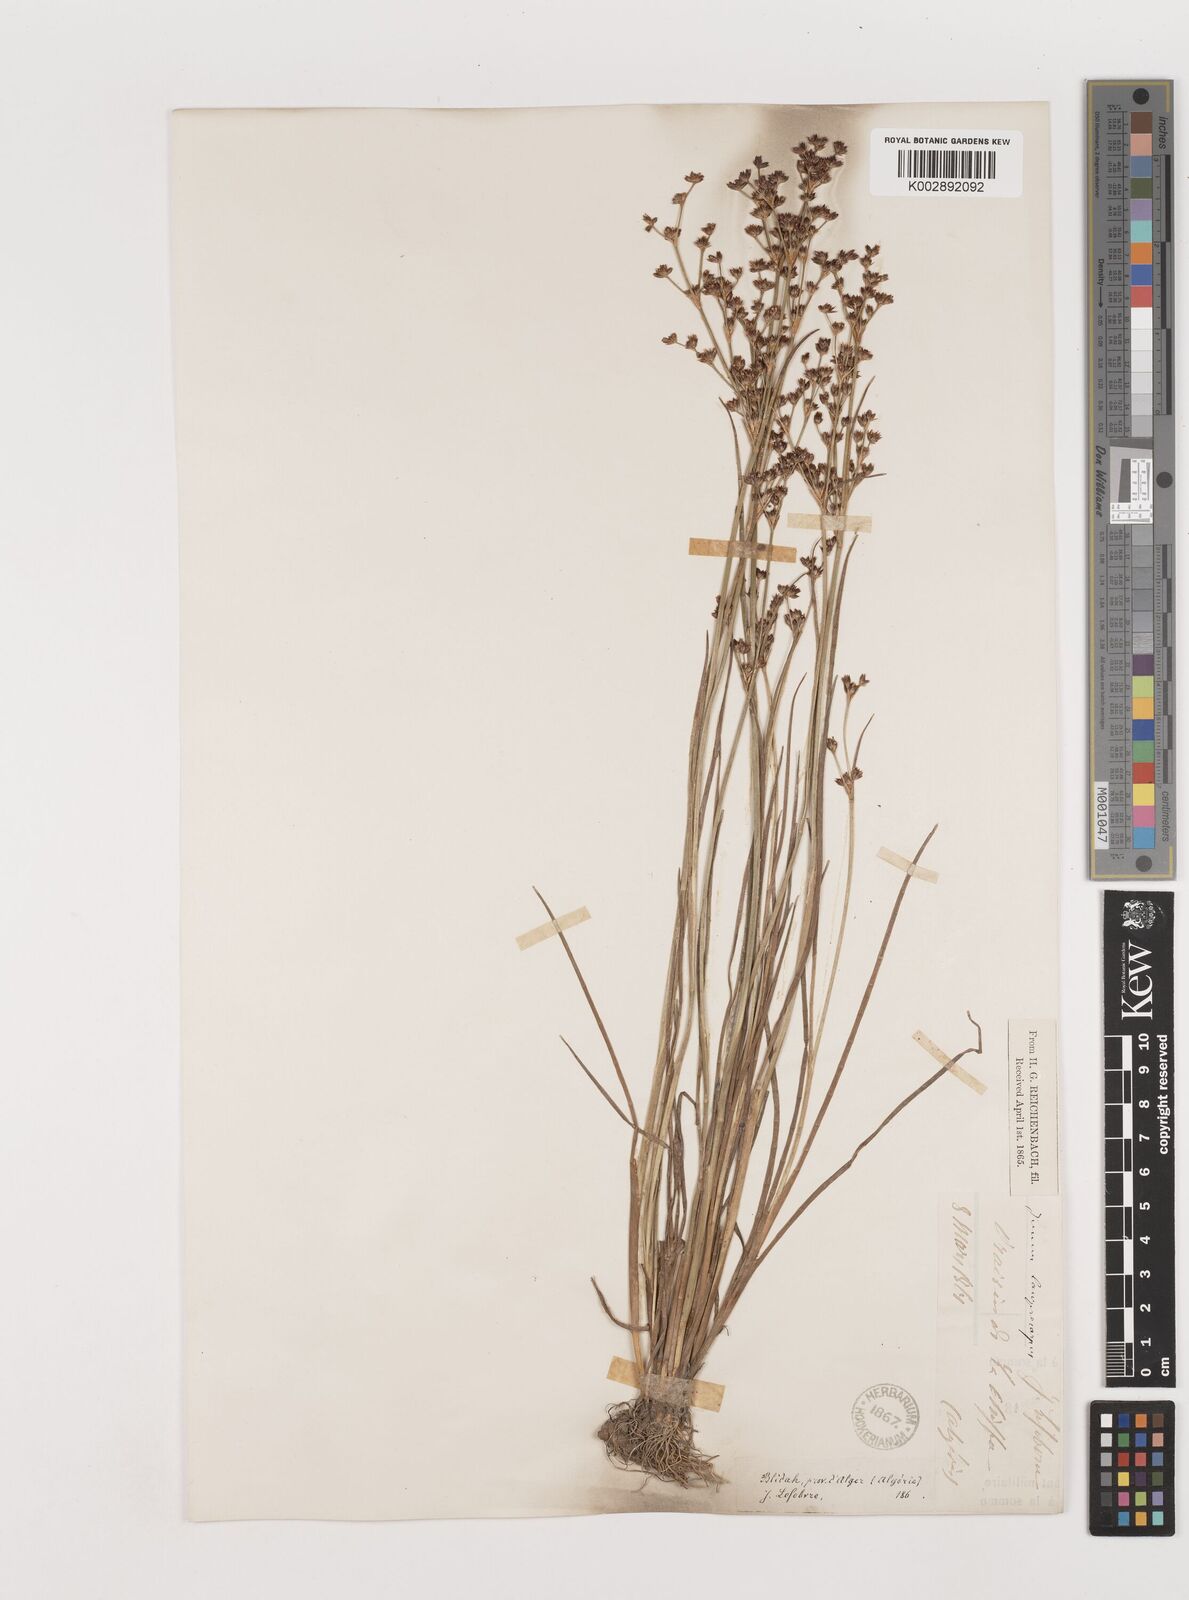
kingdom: Plantae
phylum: Tracheophyta
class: Liliopsida
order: Poales
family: Juncaceae
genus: Juncus
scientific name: Juncus articulatus
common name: Jointed rush
